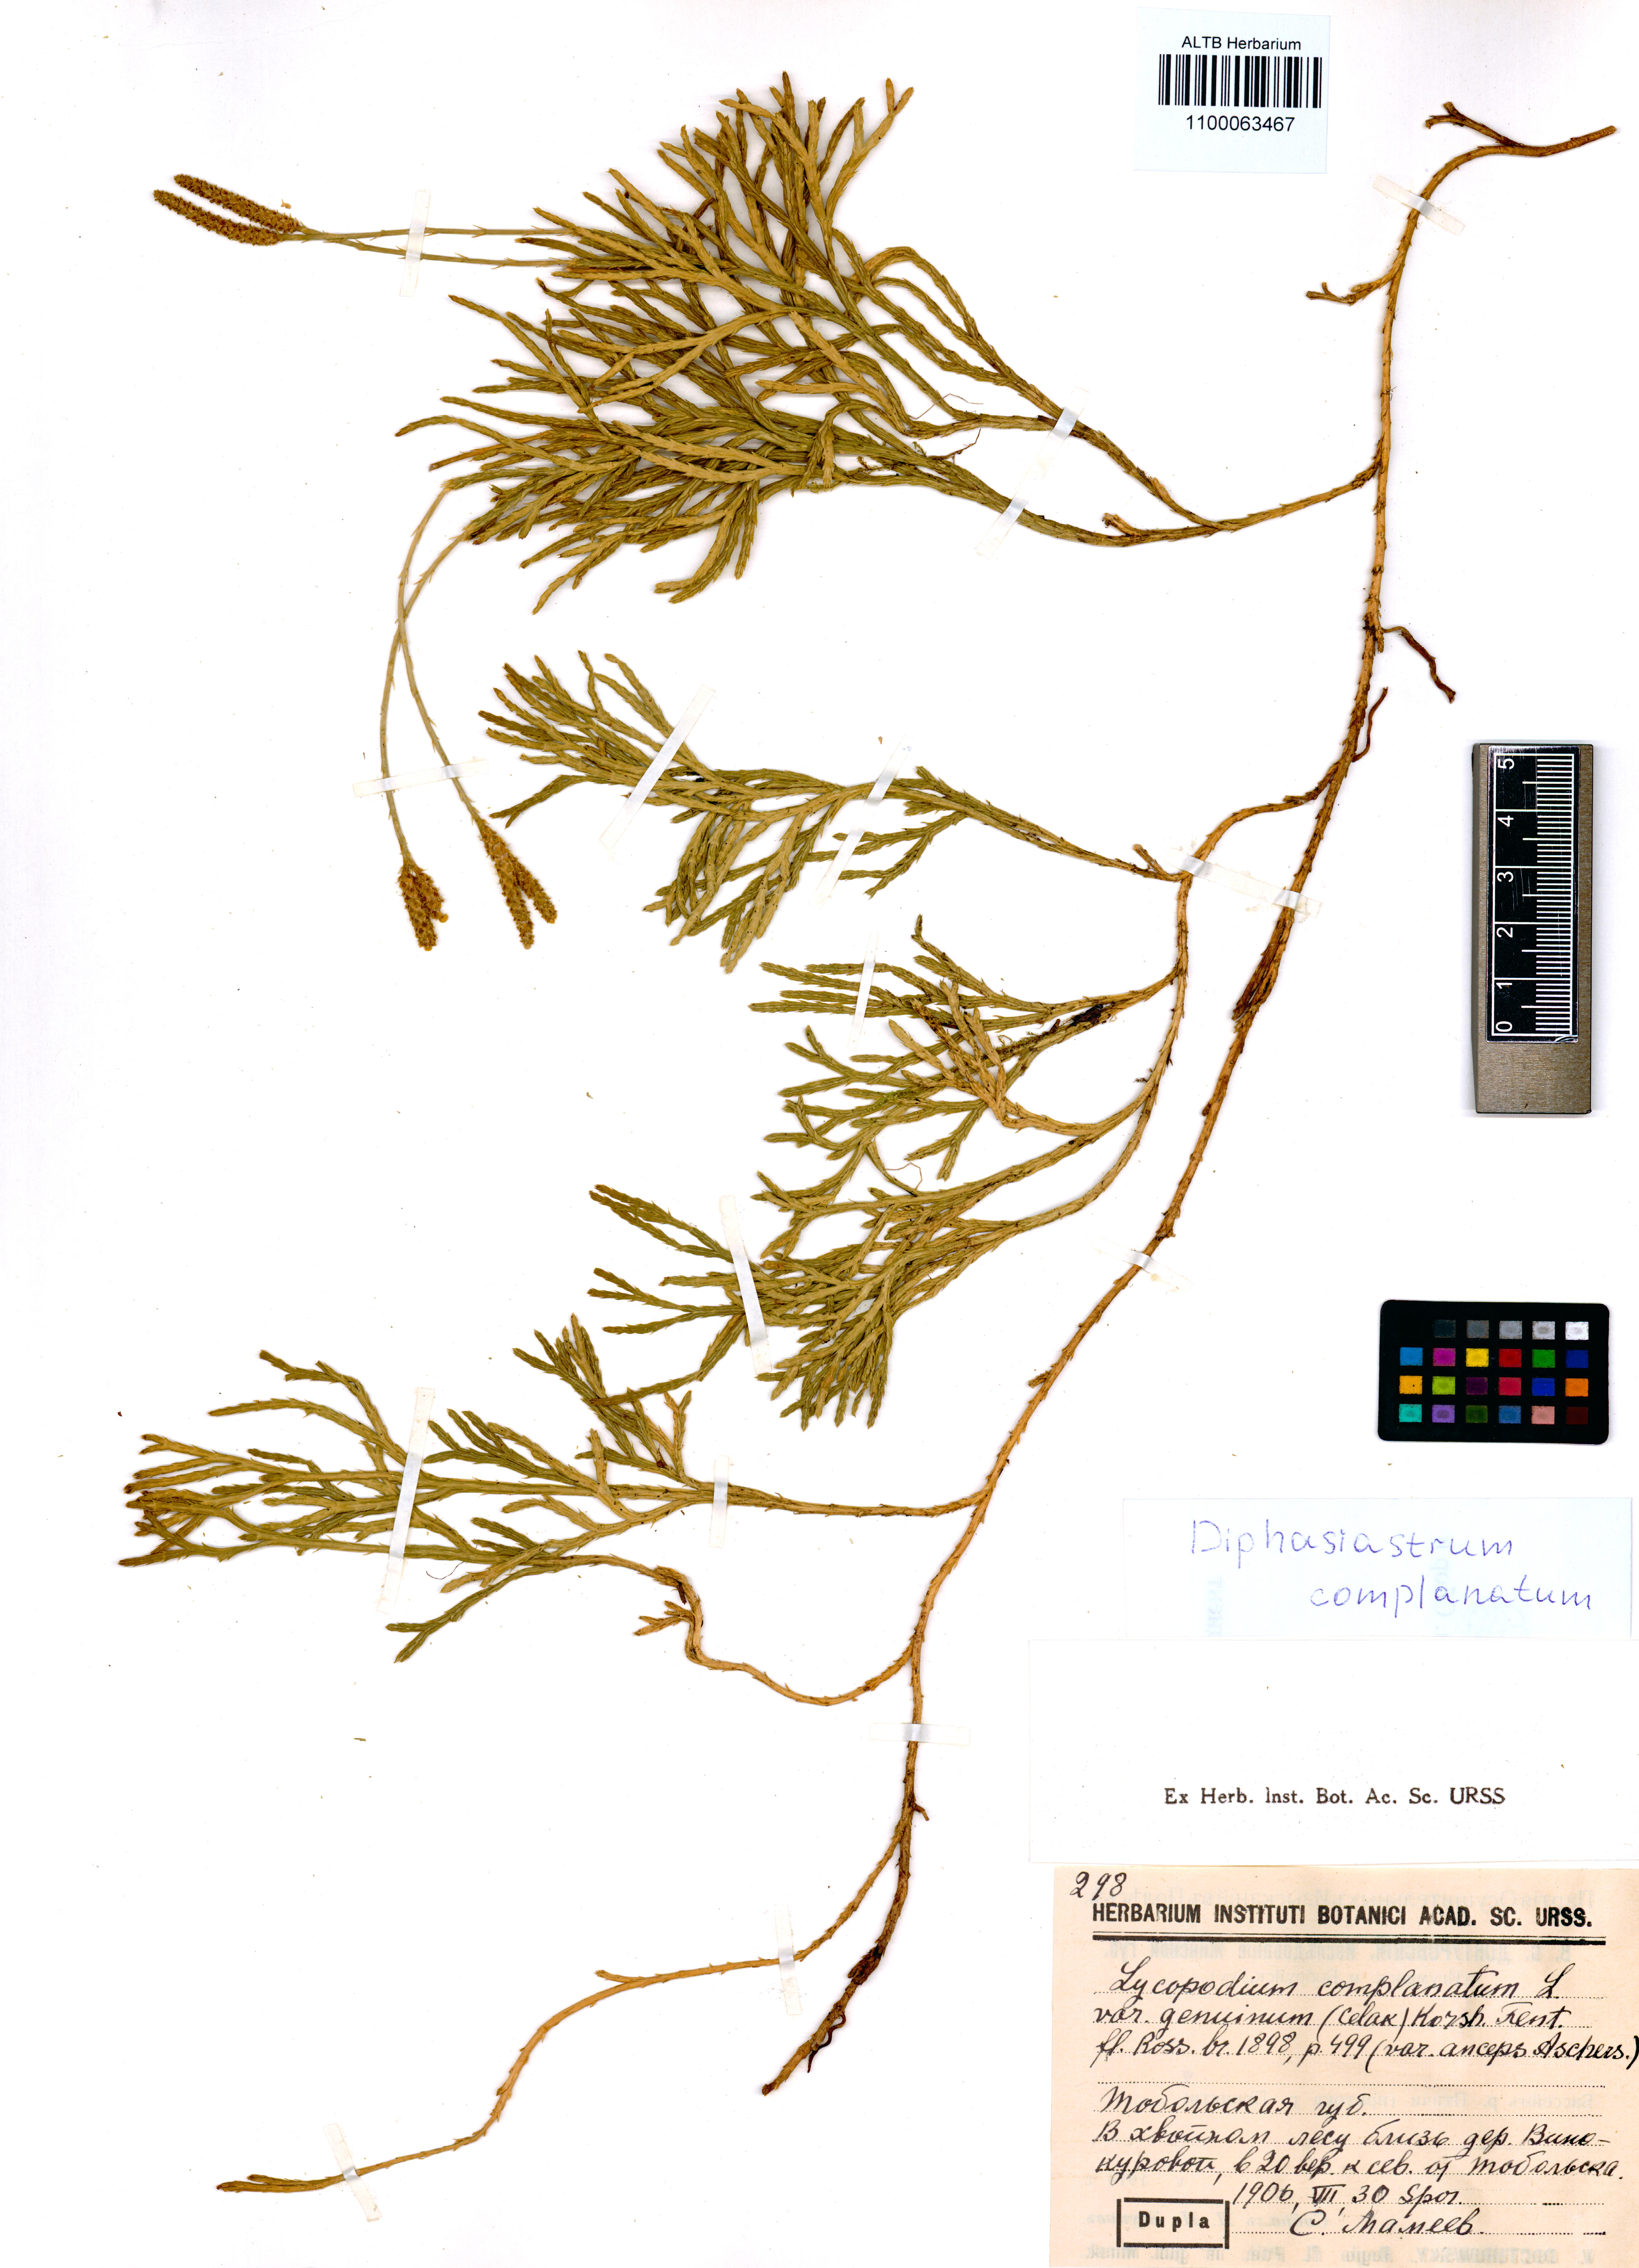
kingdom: Plantae
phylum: Tracheophyta
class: Lycopodiopsida
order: Lycopodiales
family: Lycopodiaceae
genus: Diphasiastrum
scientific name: Diphasiastrum complanatum
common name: Northern running-pine
